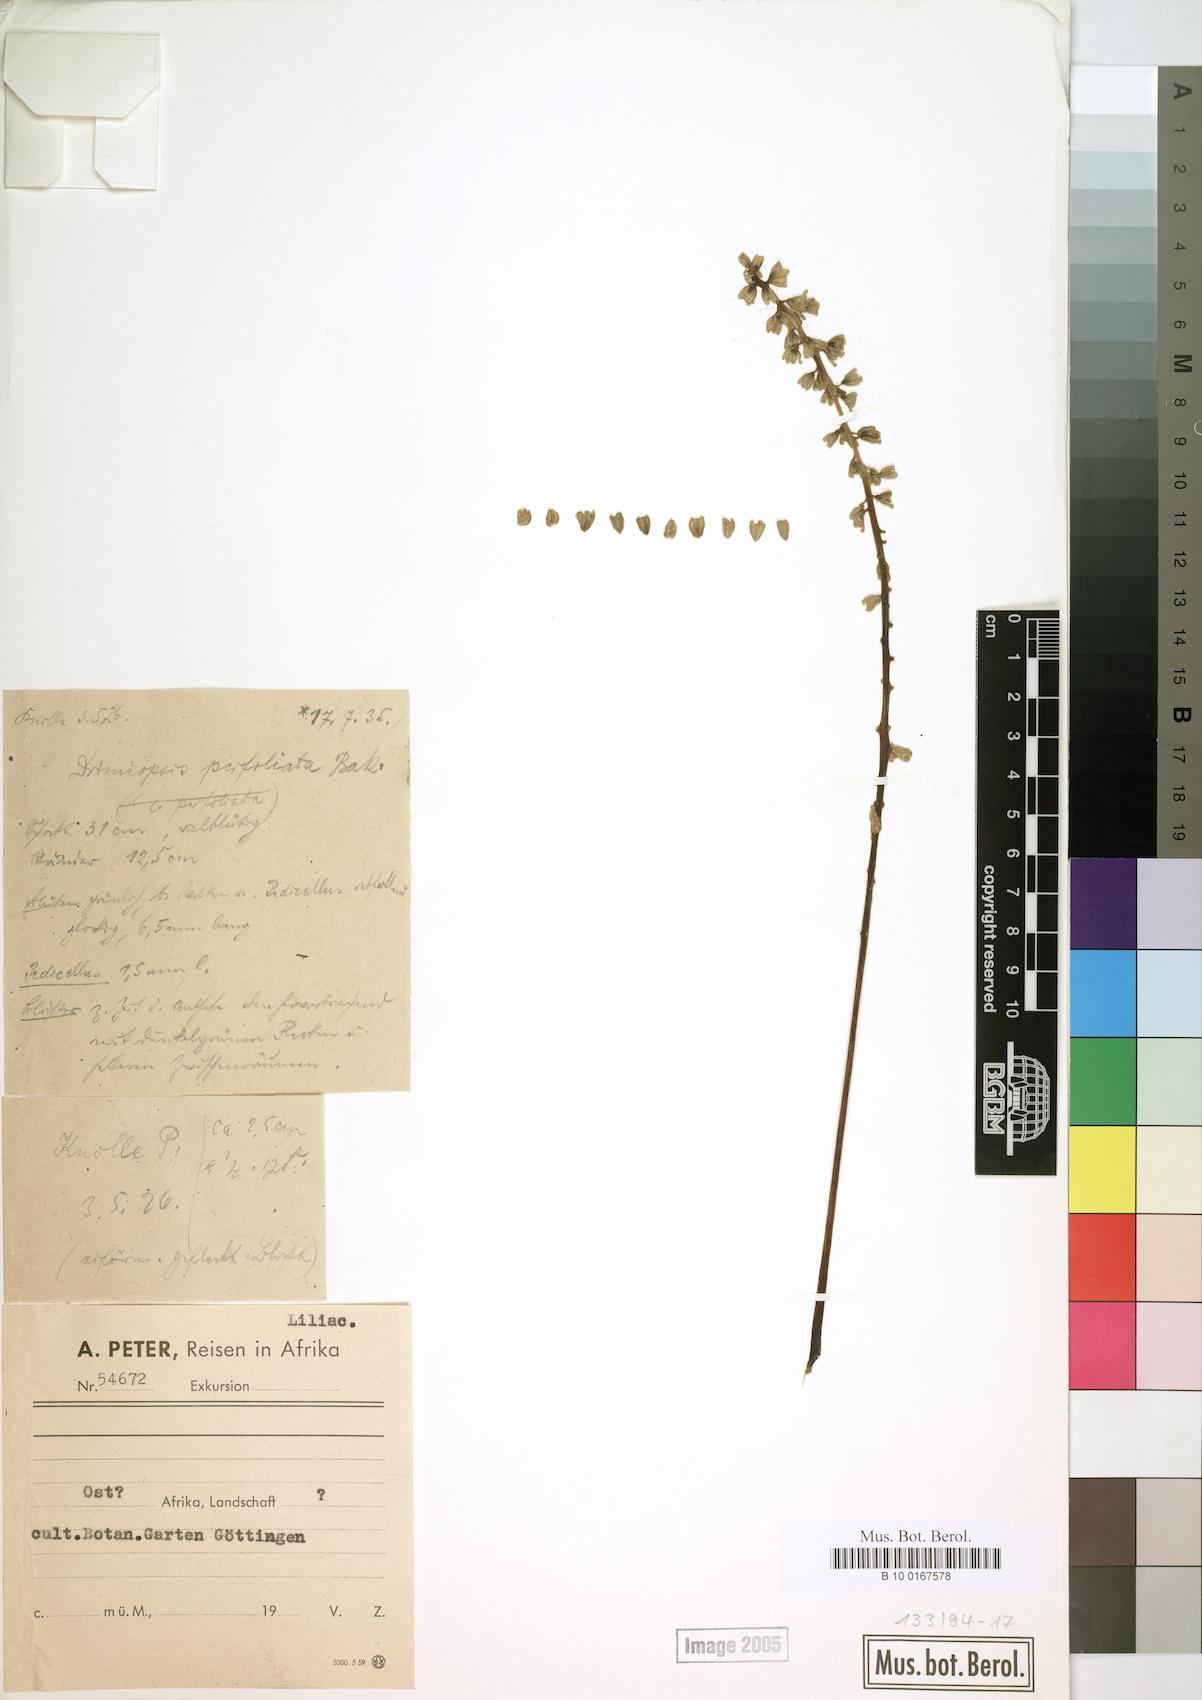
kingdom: Plantae
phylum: Tracheophyta
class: Liliopsida
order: Asparagales
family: Asparagaceae
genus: Drimiopsis
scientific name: Drimiopsis botryoides
